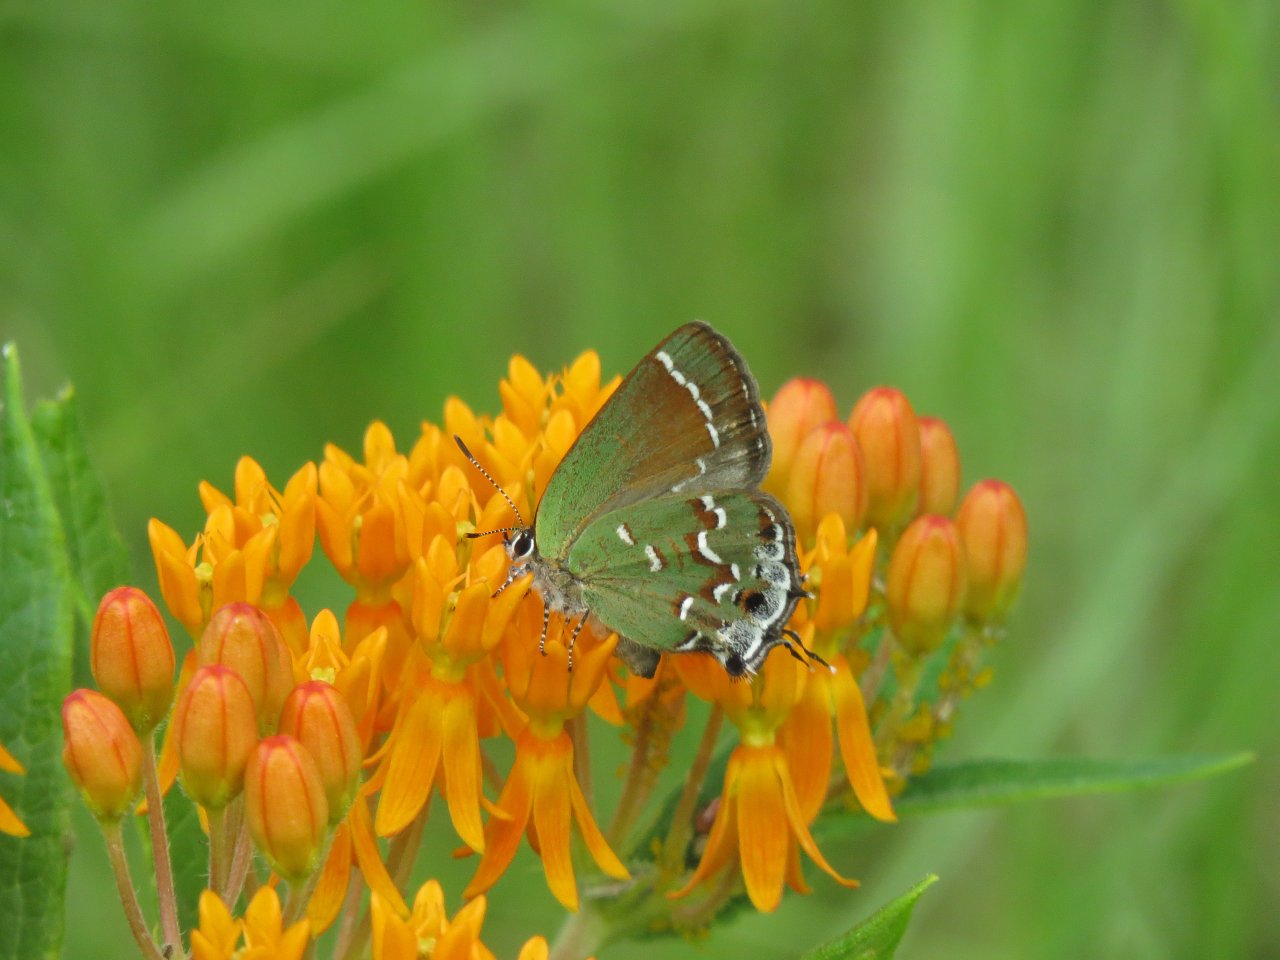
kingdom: Animalia
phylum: Arthropoda
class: Insecta
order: Lepidoptera
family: Lycaenidae
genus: Mitoura
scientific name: Mitoura gryneus
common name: Juniper Hairstreak
